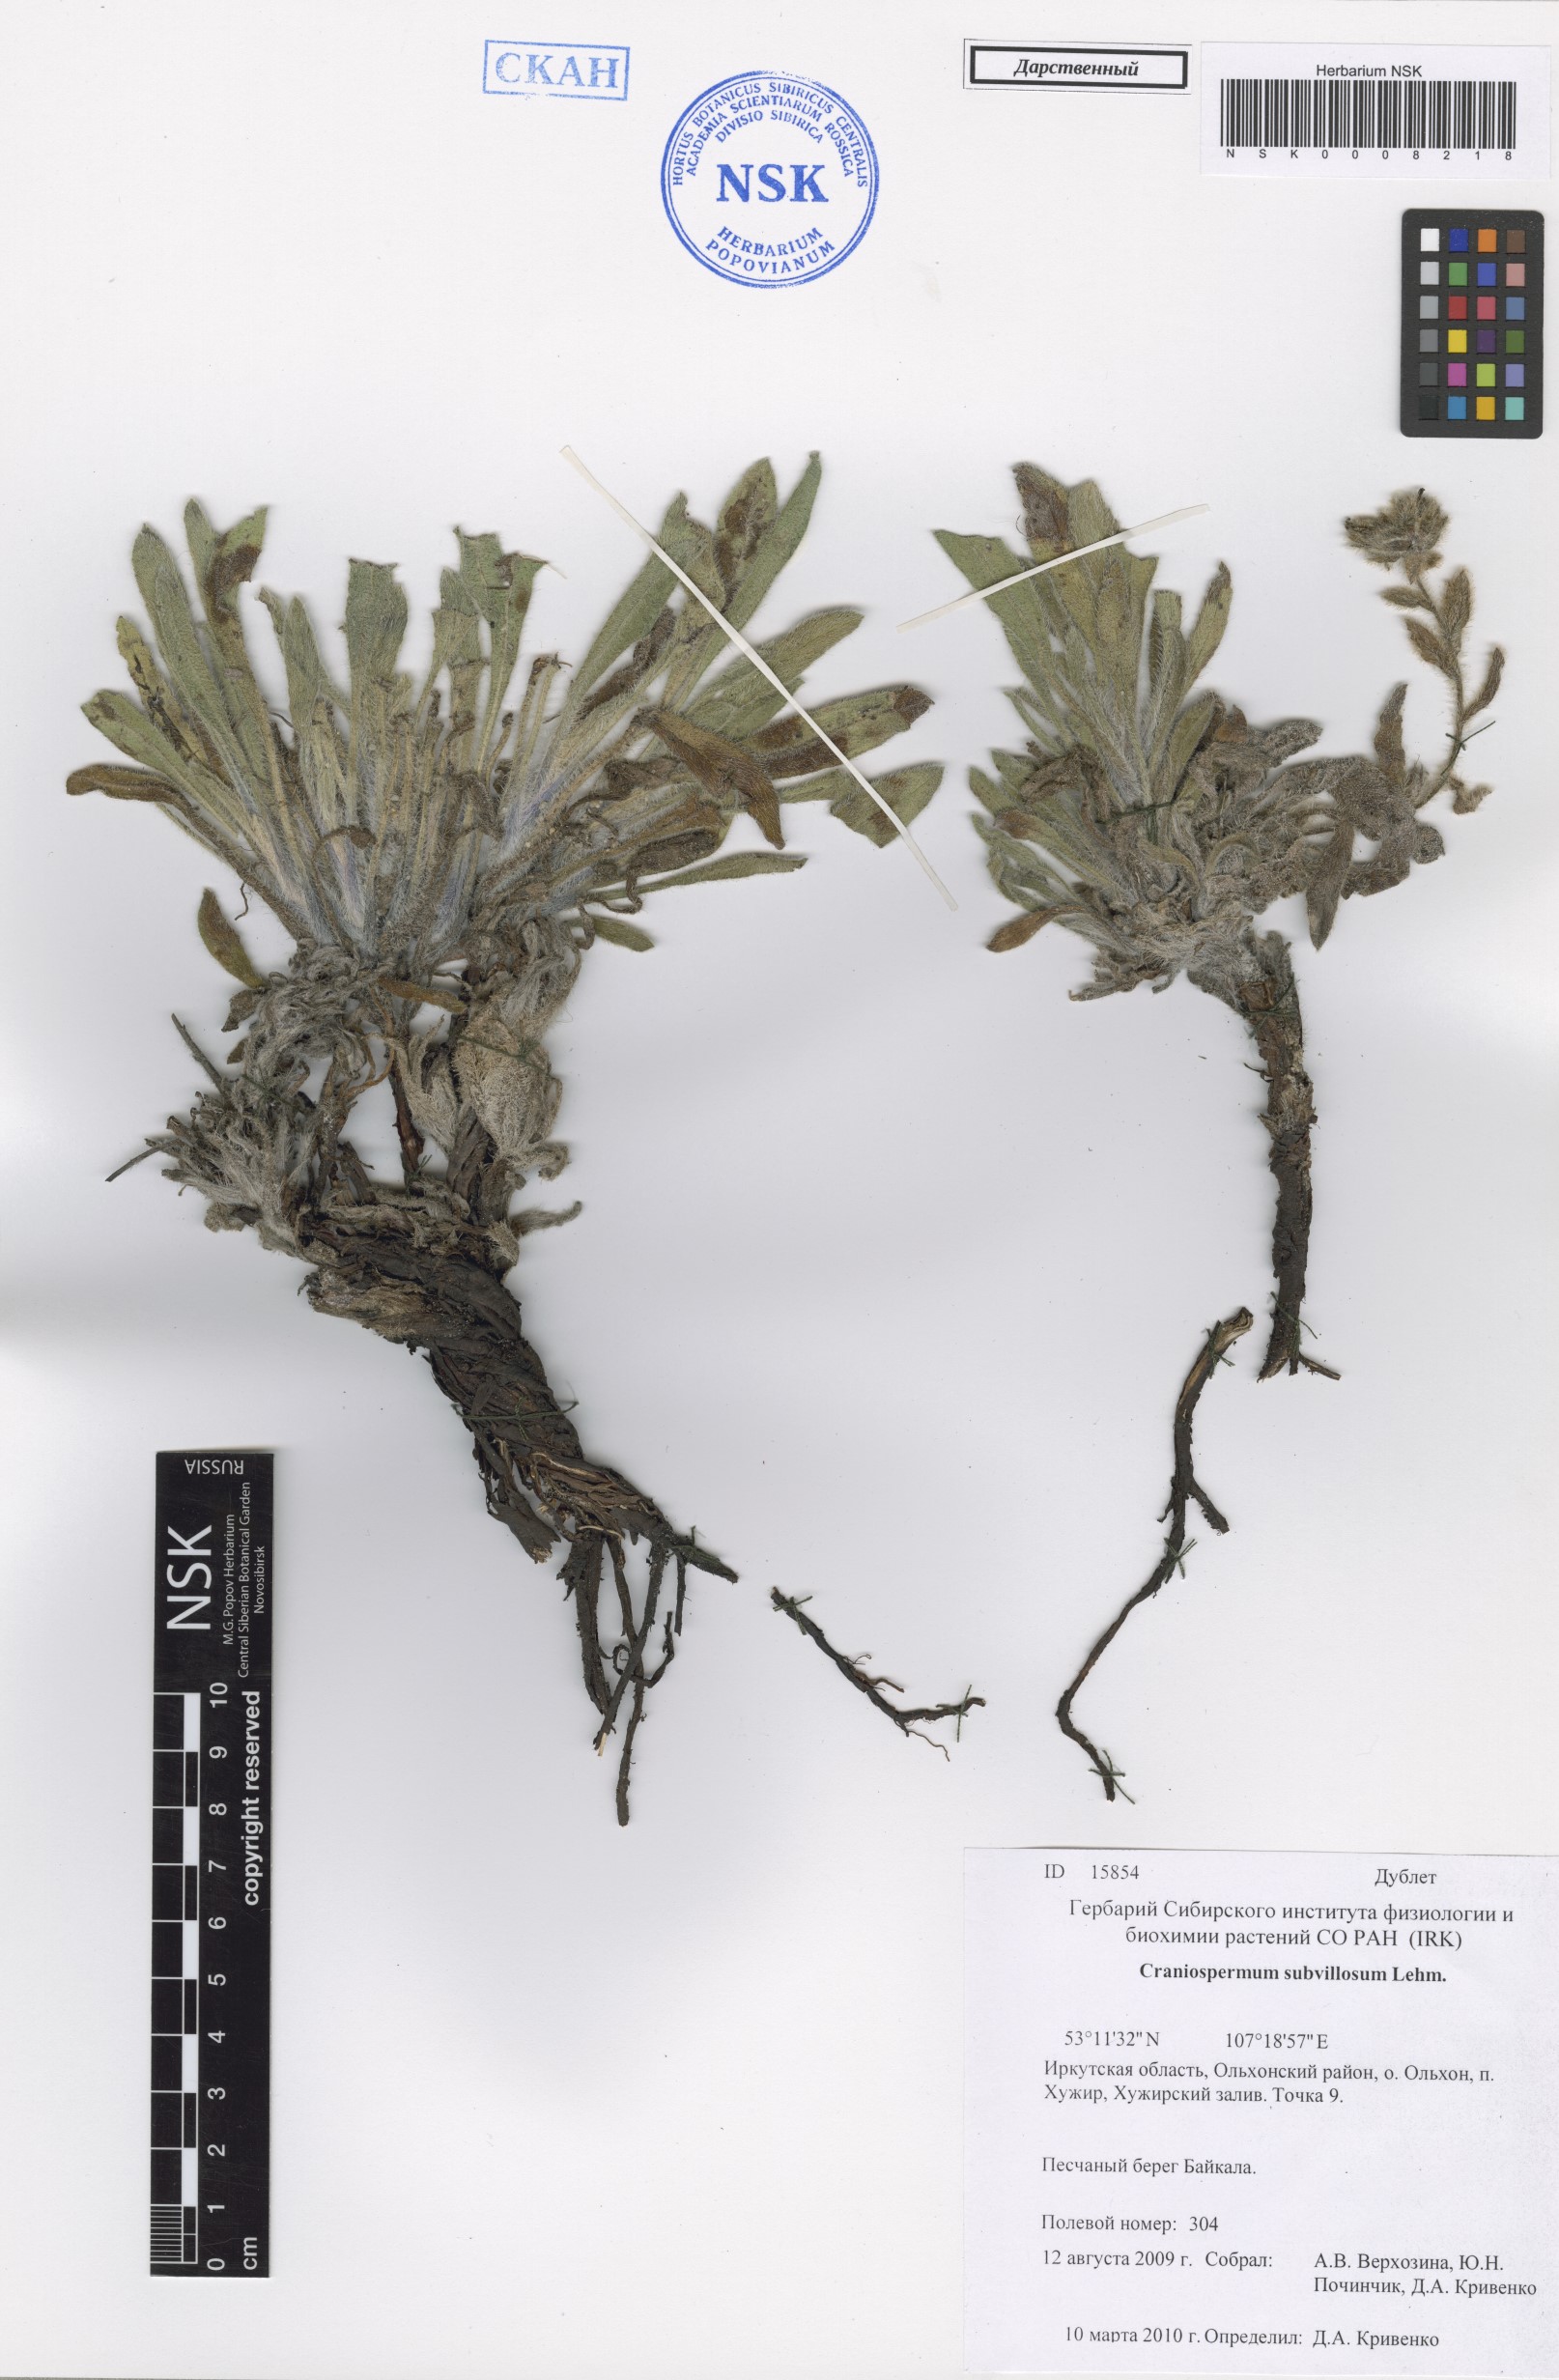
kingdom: Plantae
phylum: Tracheophyta
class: Magnoliopsida
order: Boraginales
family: Boraginaceae
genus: Craniospermum
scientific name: Craniospermum subvillosum
